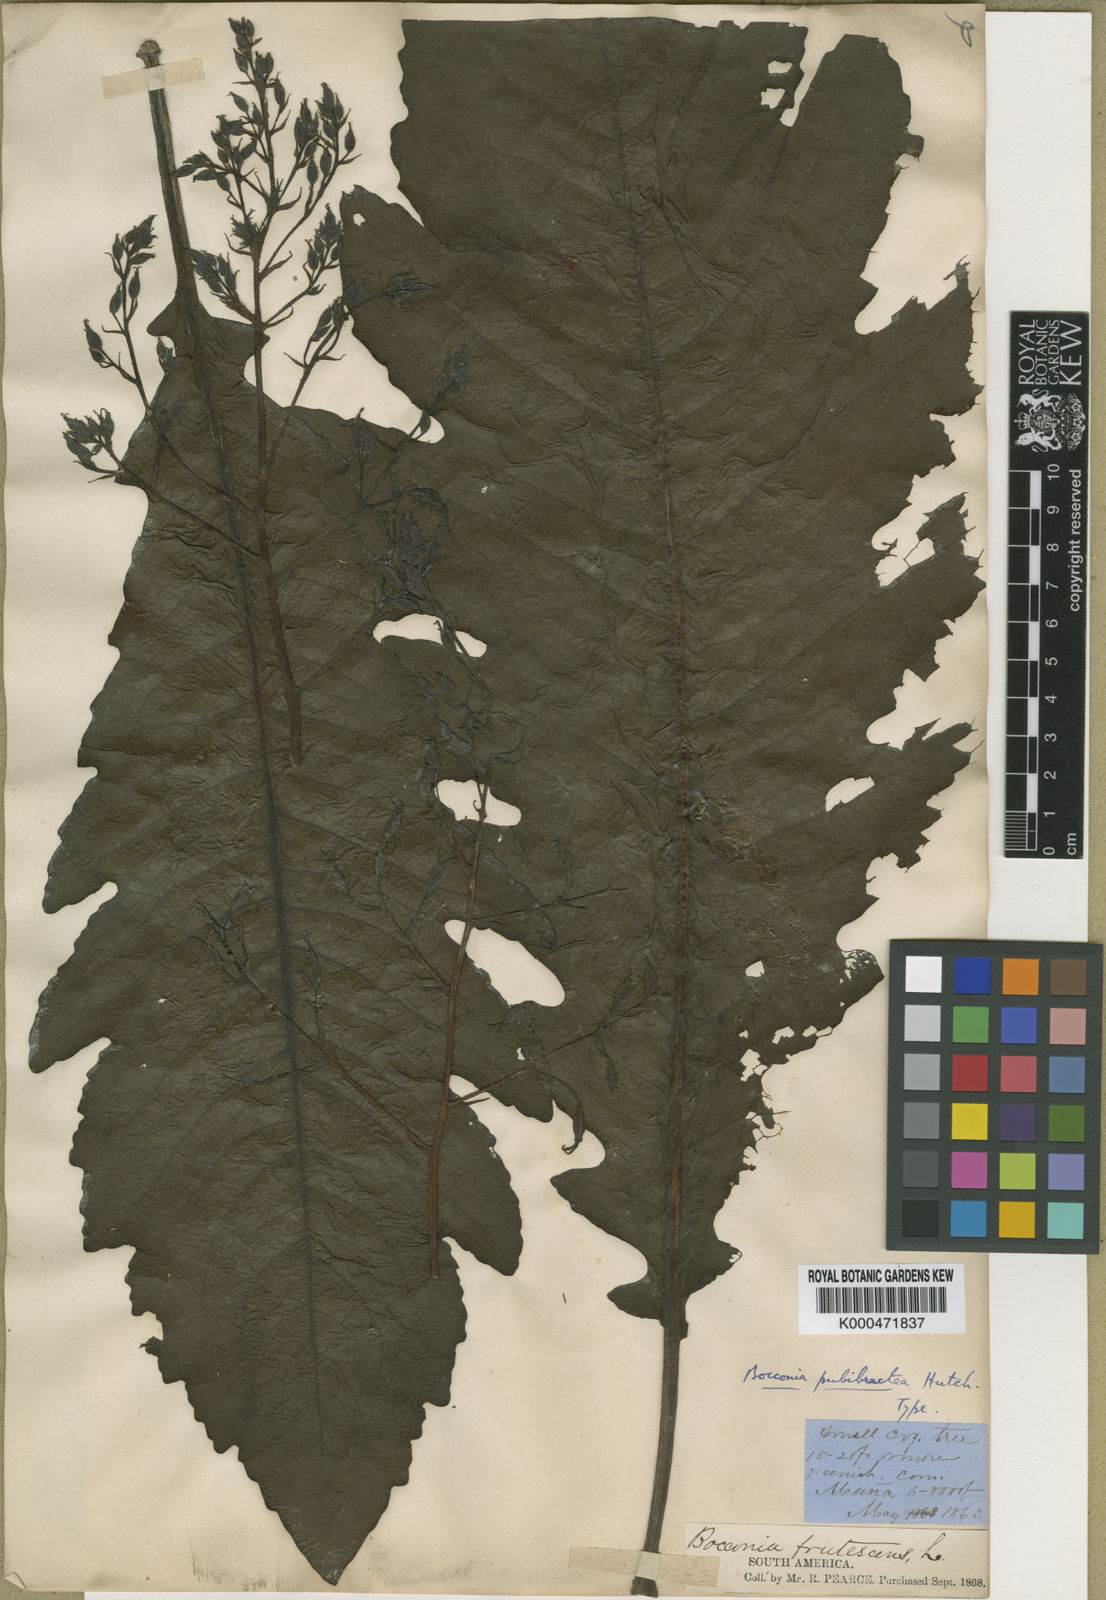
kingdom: Plantae
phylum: Tracheophyta
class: Magnoliopsida
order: Ranunculales
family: Papaveraceae
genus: Bocconia
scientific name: Bocconia integrifolia
